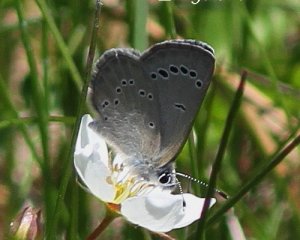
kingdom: Animalia
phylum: Arthropoda
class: Insecta
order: Lepidoptera
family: Lycaenidae
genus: Glaucopsyche
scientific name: Glaucopsyche lygdamus
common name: Silvery Blue
